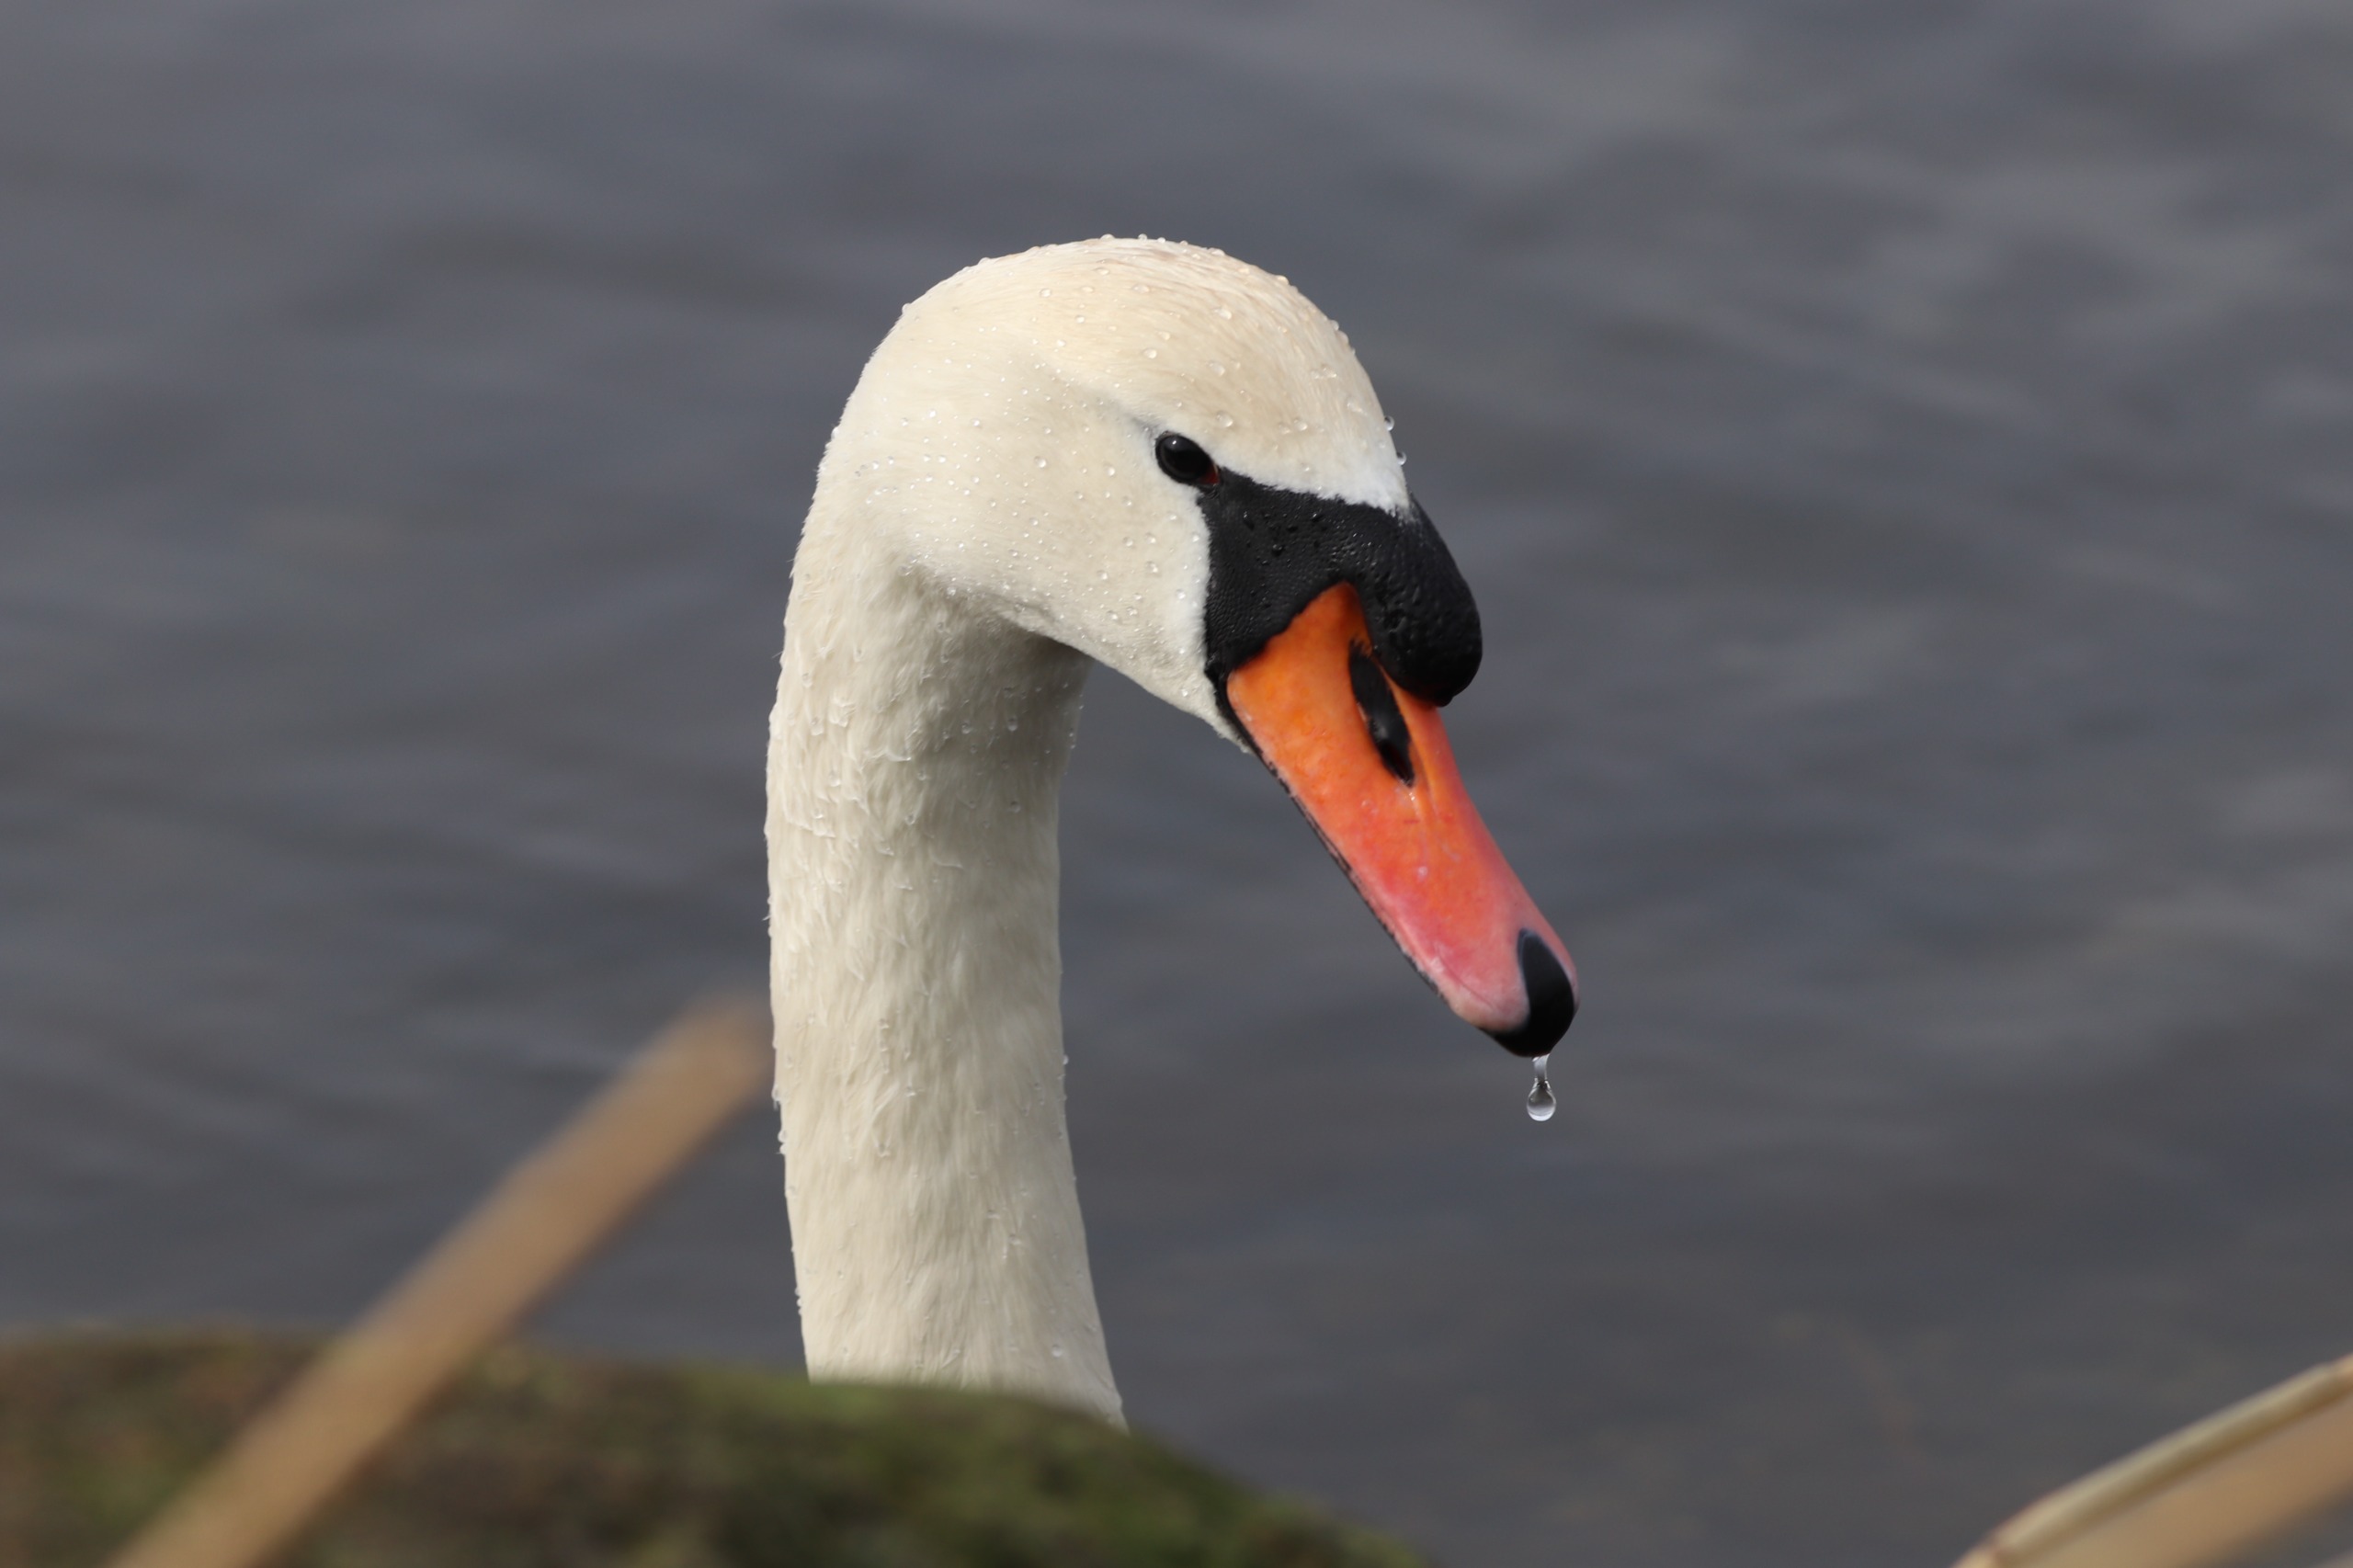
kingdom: Animalia
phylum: Chordata
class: Aves
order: Anseriformes
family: Anatidae
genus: Cygnus
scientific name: Cygnus olor
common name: Knopsvane
